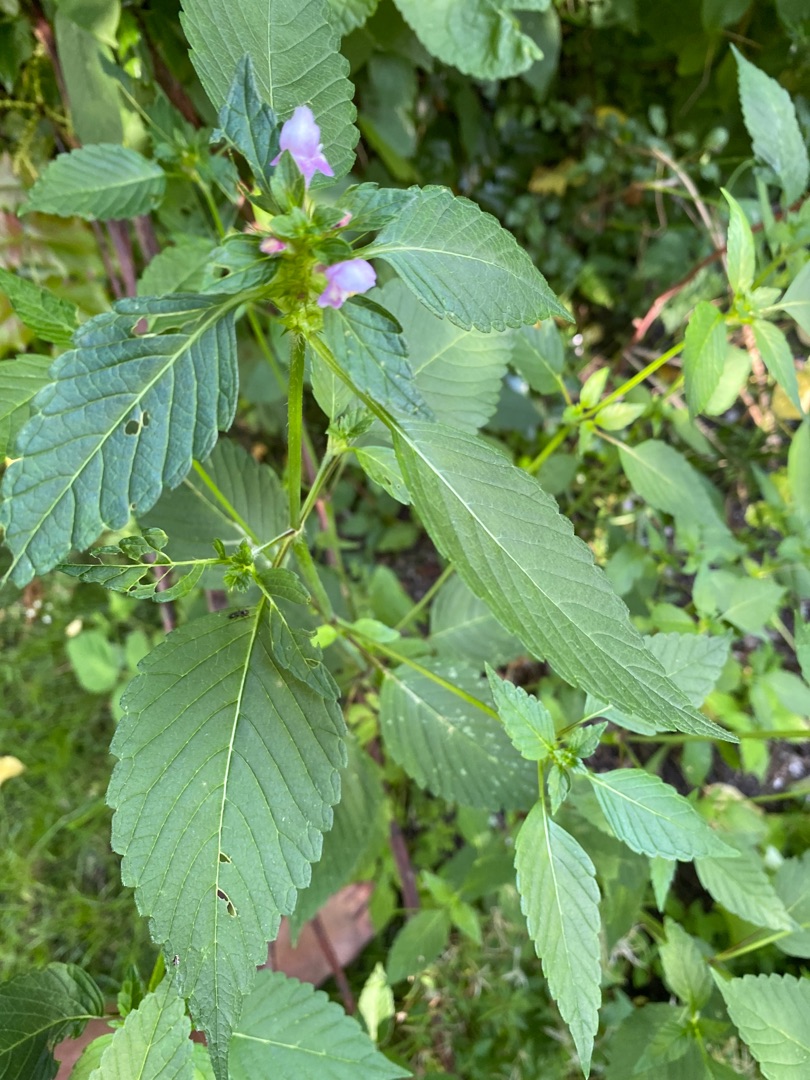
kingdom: Plantae
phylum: Tracheophyta
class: Magnoliopsida
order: Lamiales
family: Lamiaceae
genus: Galeopsis
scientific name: Galeopsis bifida
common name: Skov-hanekro
